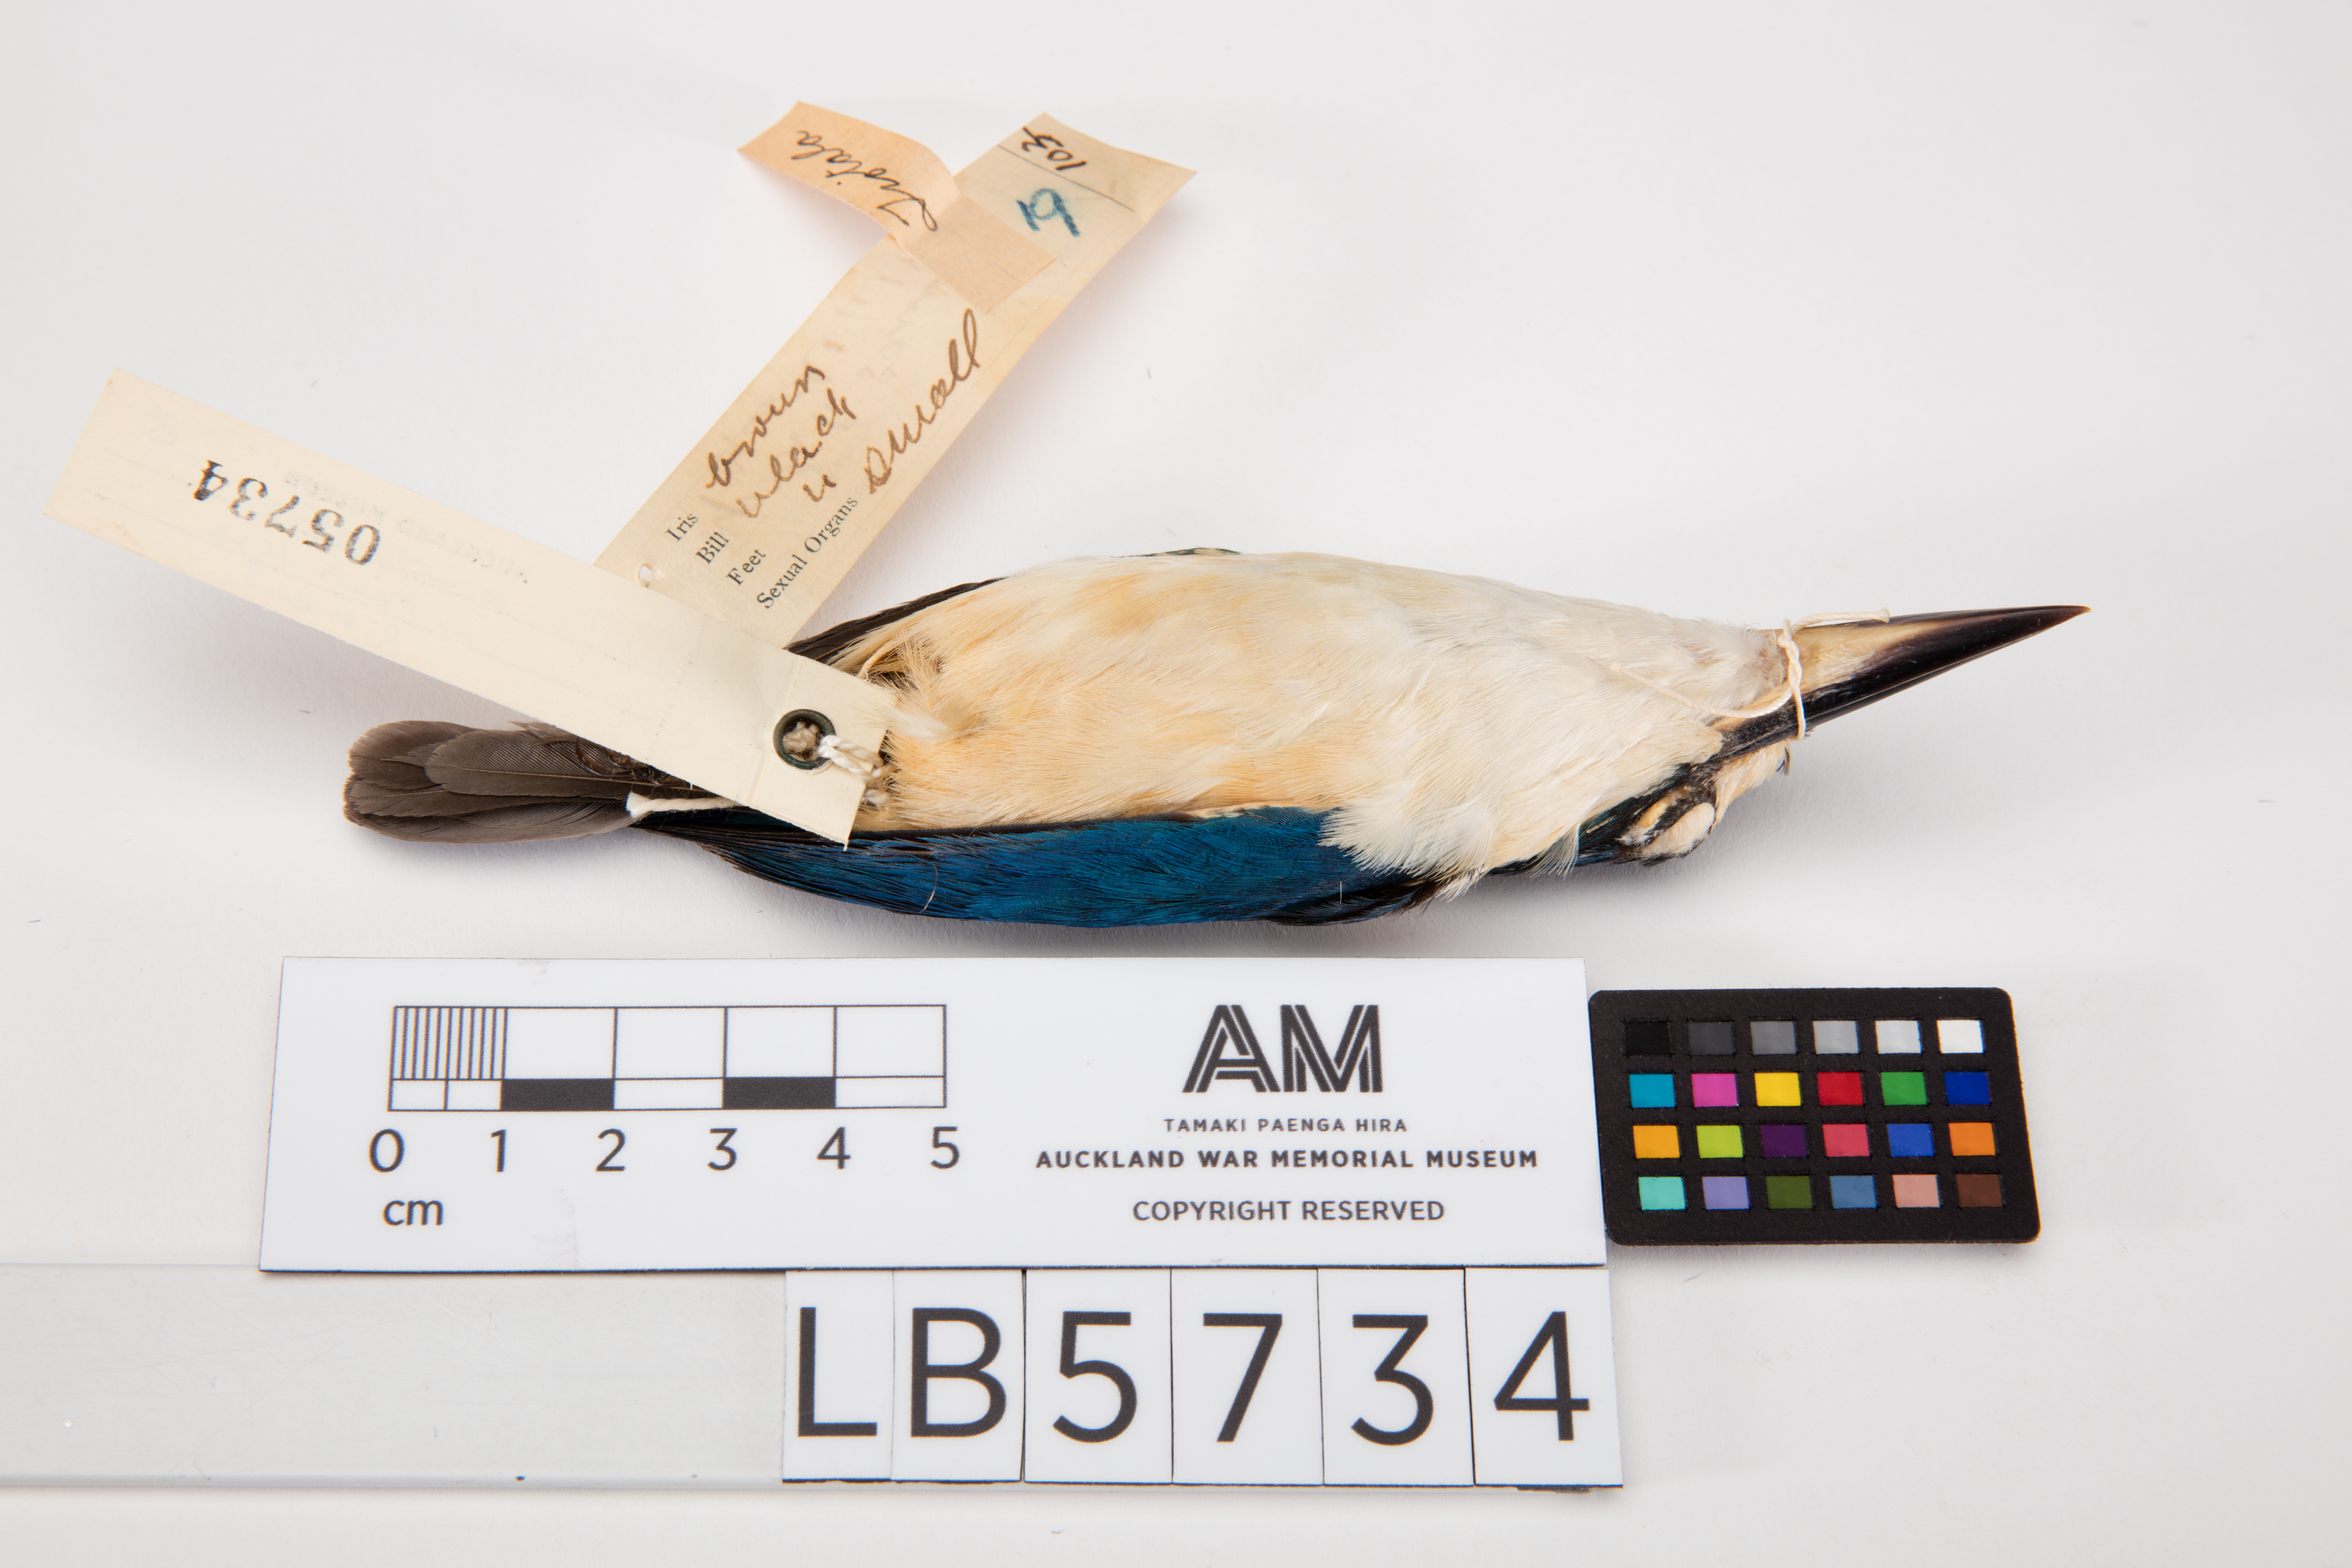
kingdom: Animalia
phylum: Chordata
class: Aves
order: Coraciiformes
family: Alcedinidae
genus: Todiramphus
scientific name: Todiramphus recurvirostris
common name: Flat-billed kingfisher
